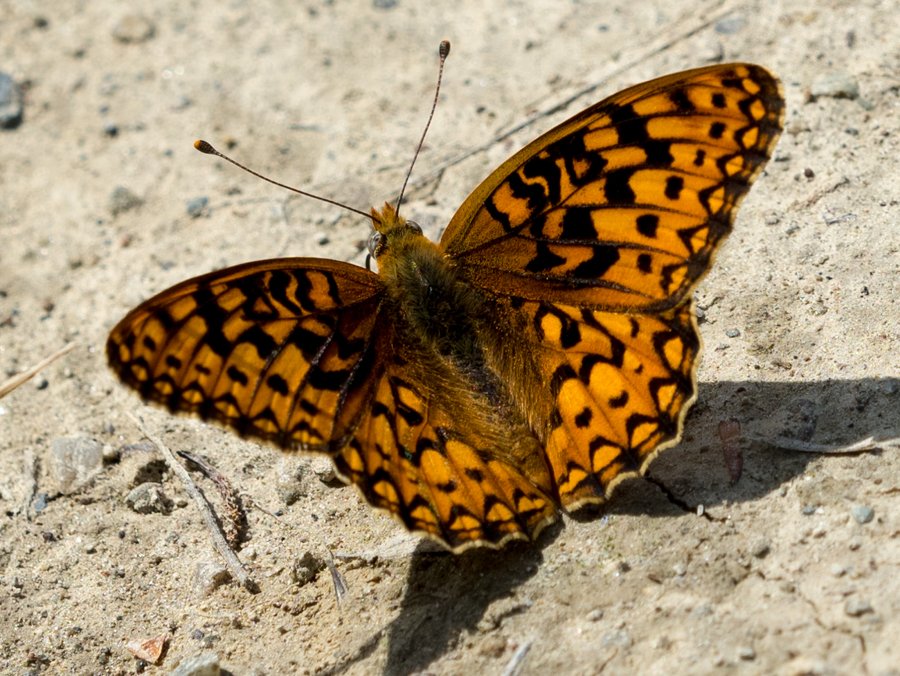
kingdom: Animalia
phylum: Arthropoda
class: Insecta
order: Lepidoptera
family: Nymphalidae
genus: Speyeria
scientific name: Speyeria callippe
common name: Callippe Fritillary
